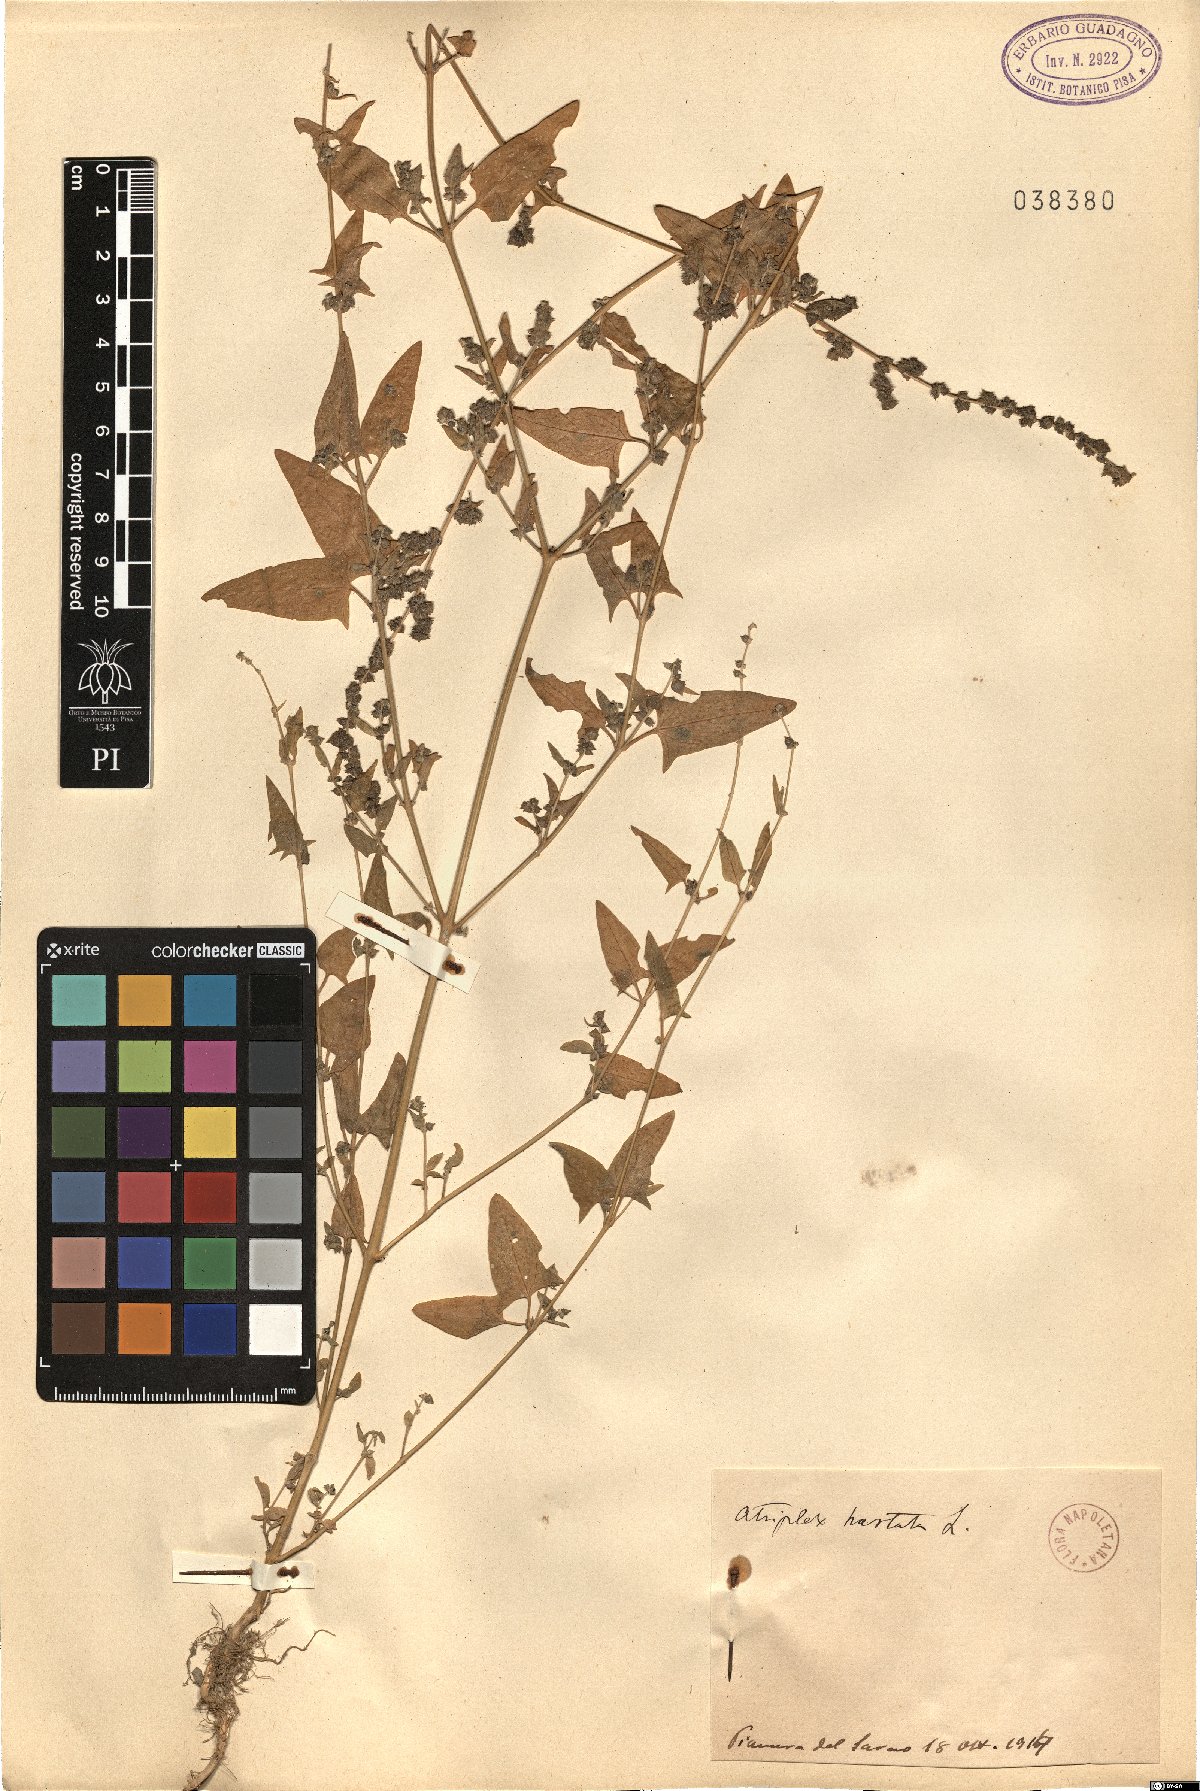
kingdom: Plantae
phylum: Tracheophyta
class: Magnoliopsida
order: Caryophyllales
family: Amaranthaceae
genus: Atriplex
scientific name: Atriplex calotheca
